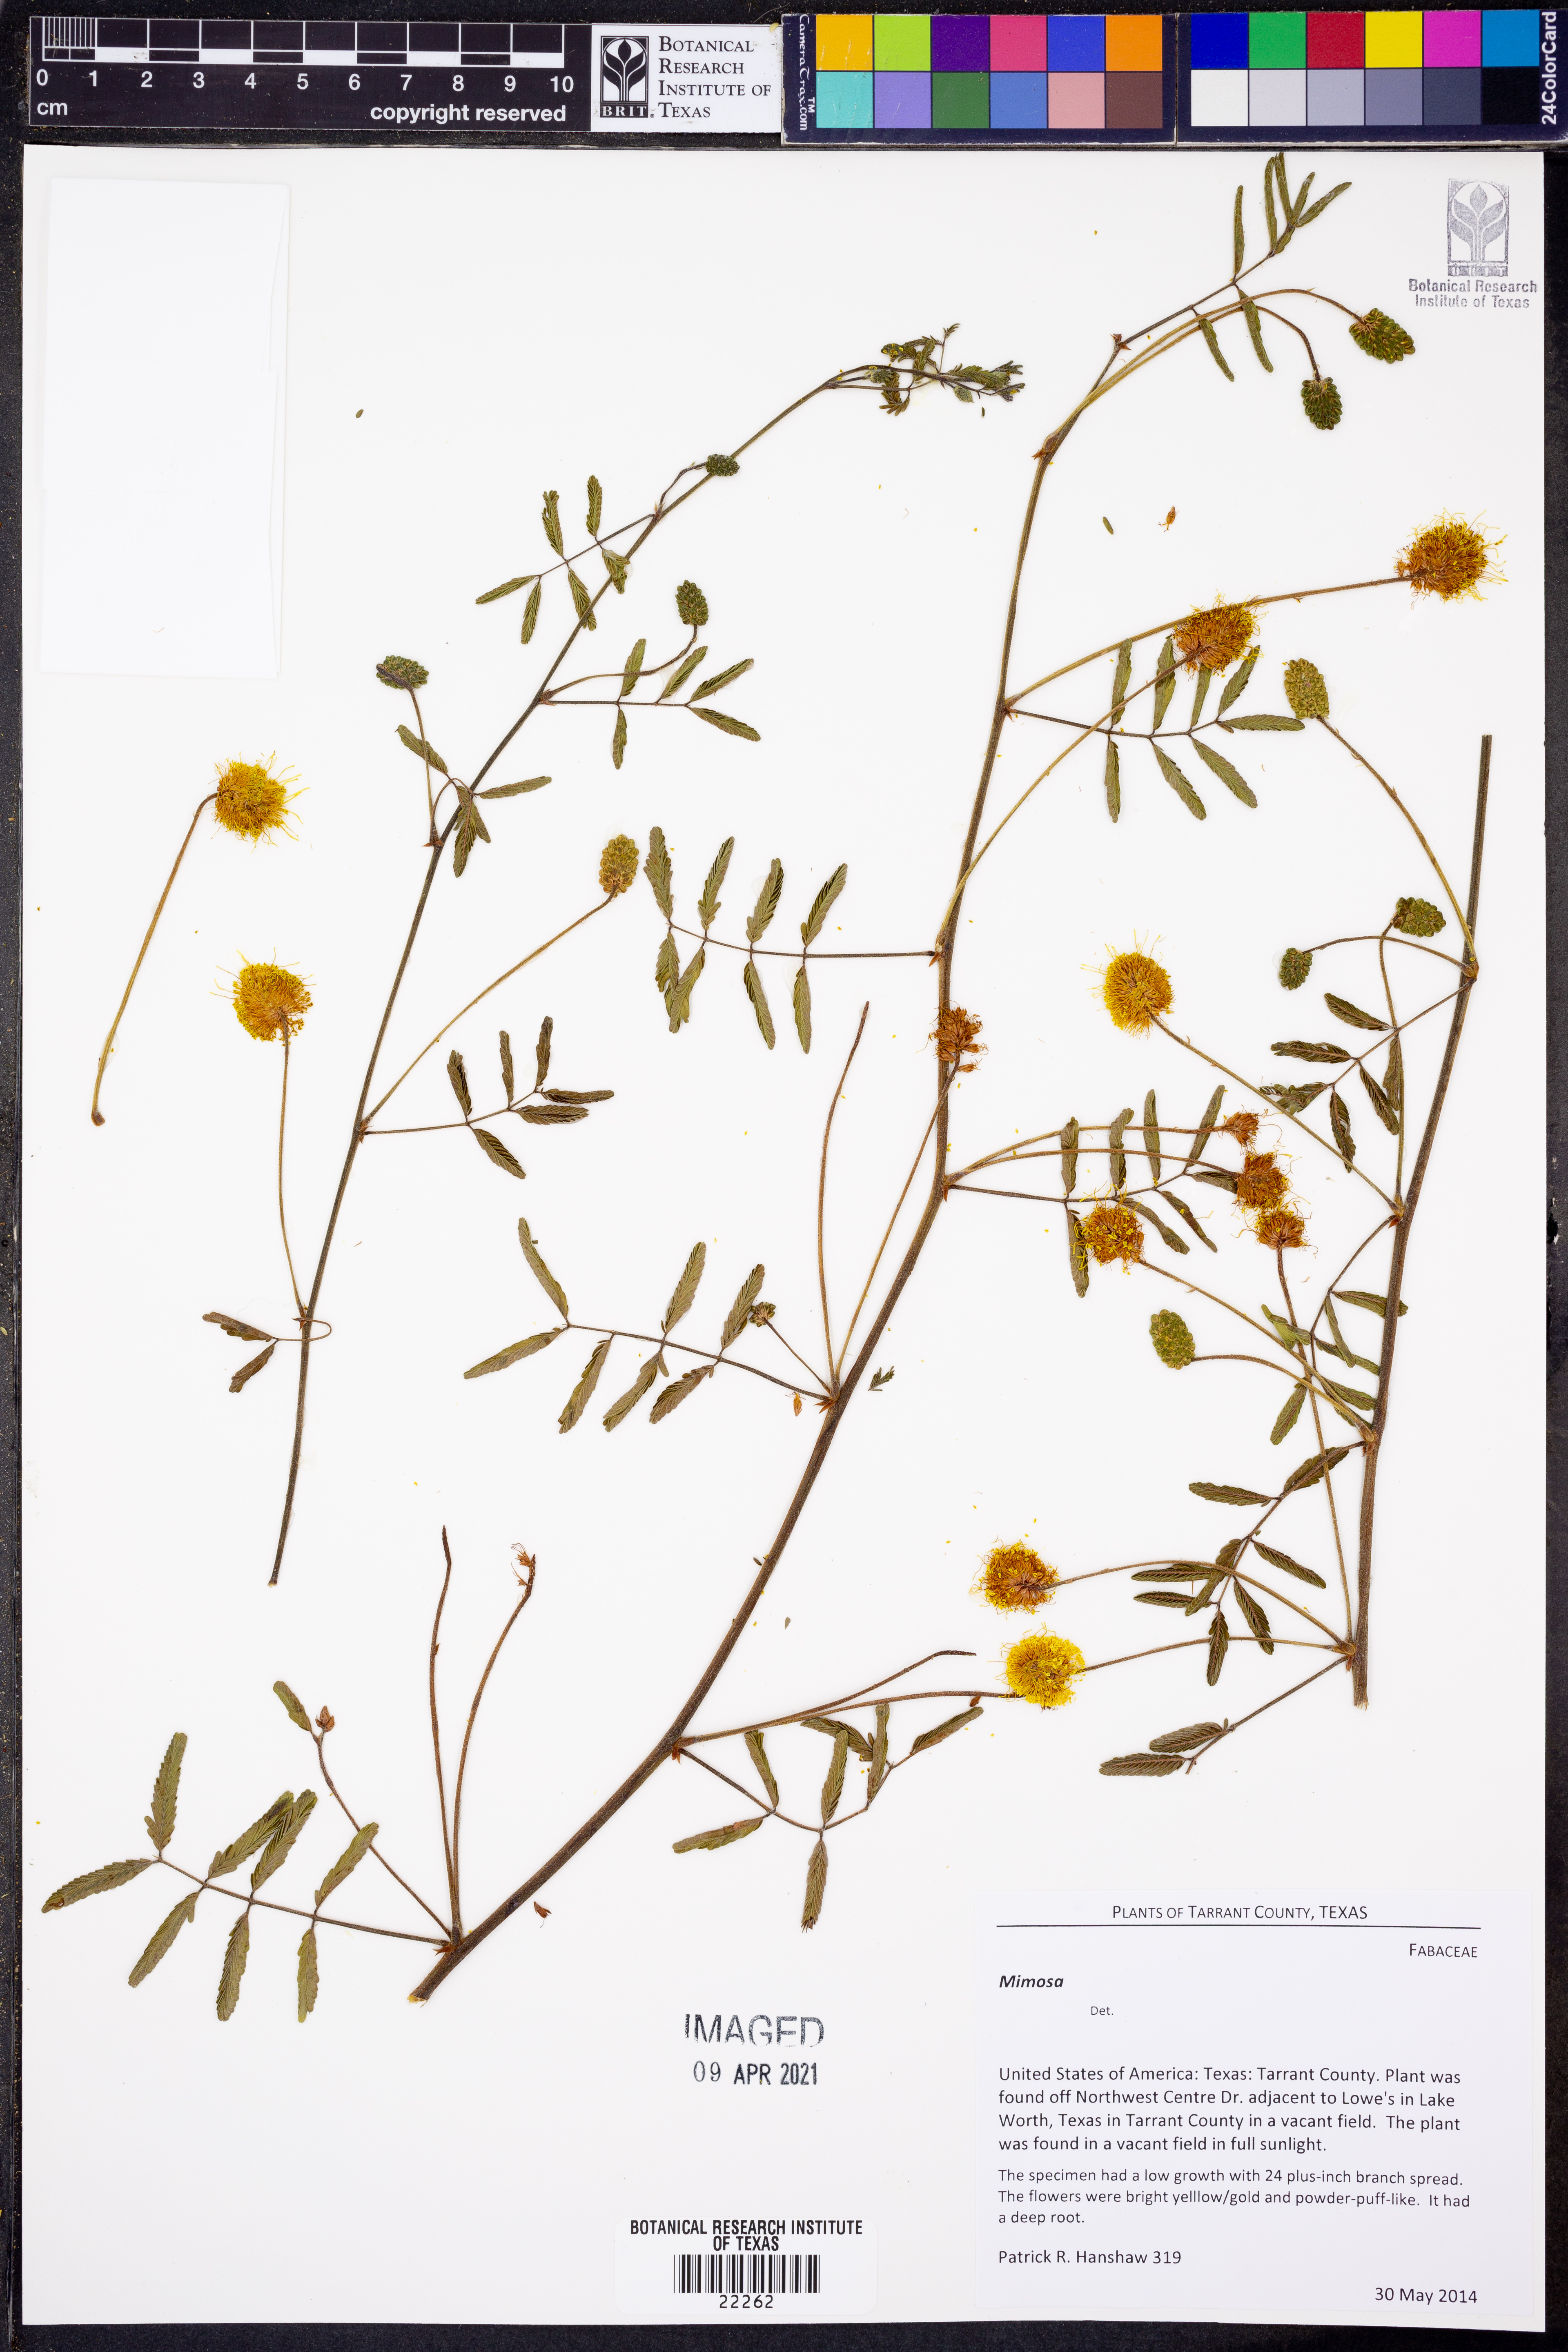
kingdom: Plantae
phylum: Tracheophyta
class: Magnoliopsida
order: Fabales
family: Fabaceae
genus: Mimosa
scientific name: Mimosa
